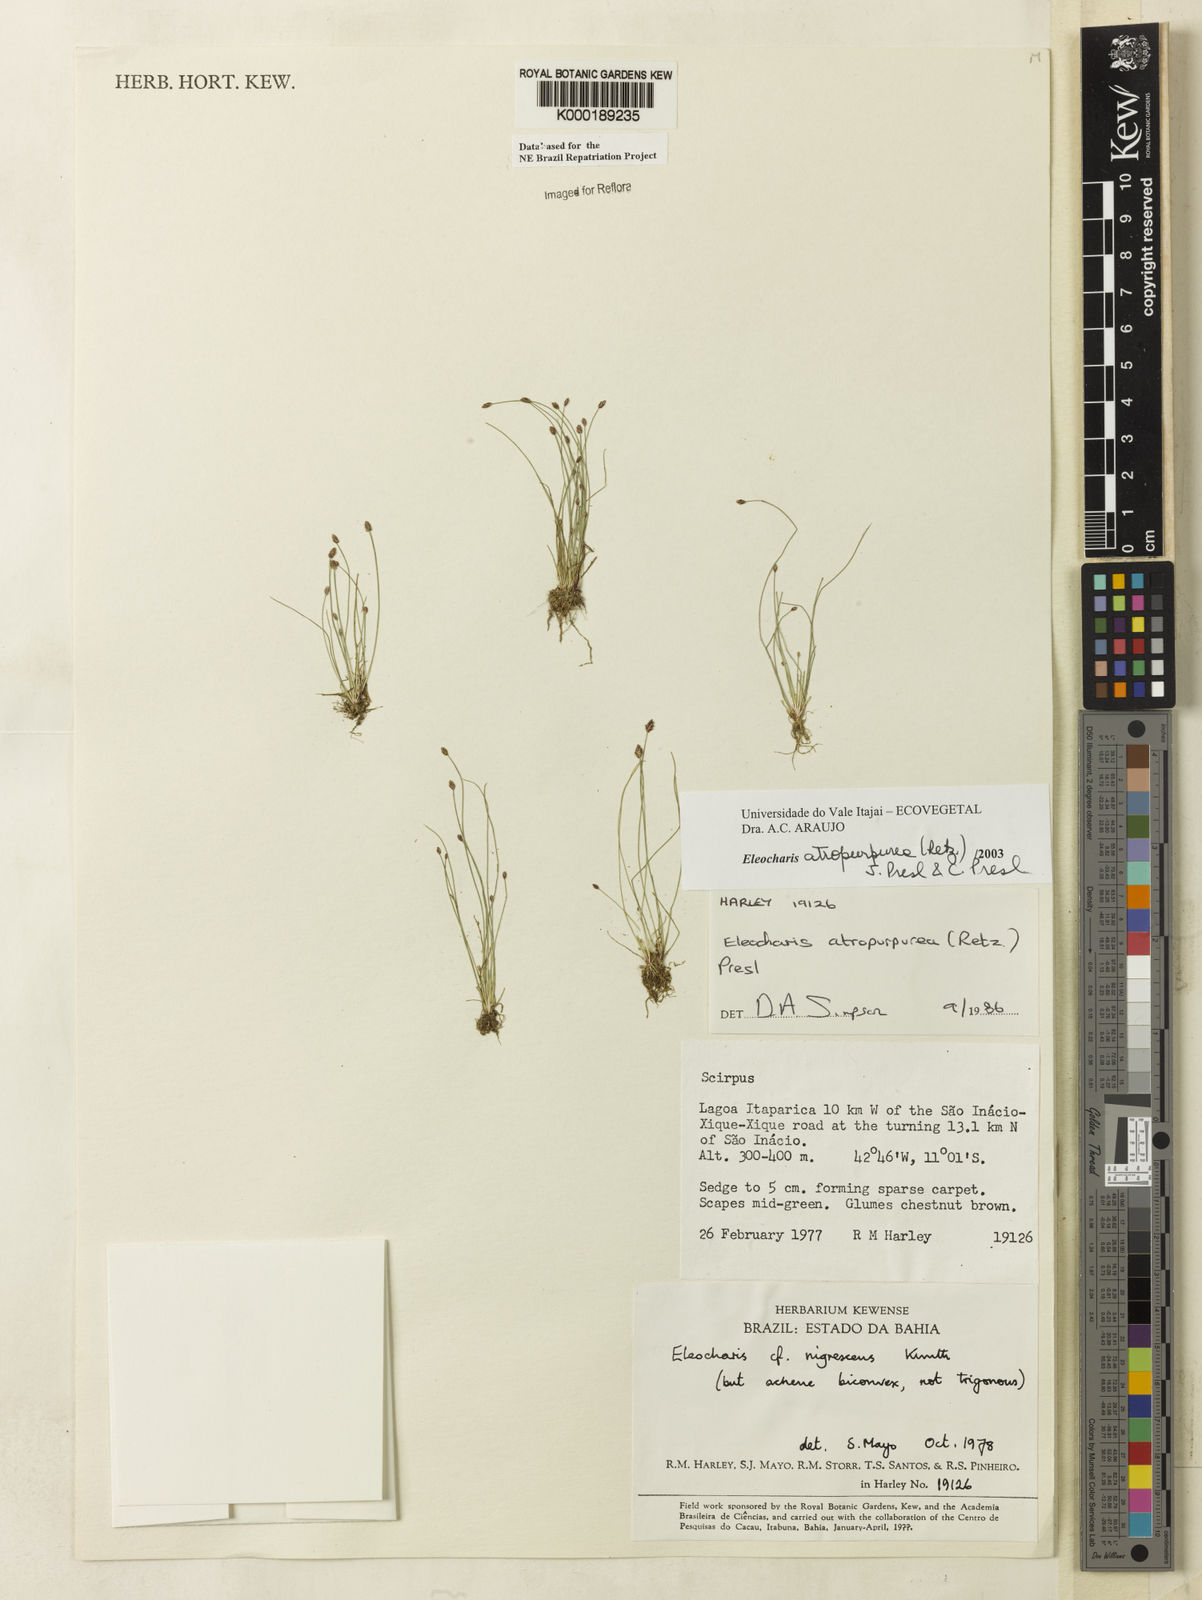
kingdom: Plantae
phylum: Tracheophyta
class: Liliopsida
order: Poales
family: Cyperaceae
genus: Eleocharis
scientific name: Eleocharis atropurpurea
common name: Purple spikerush
